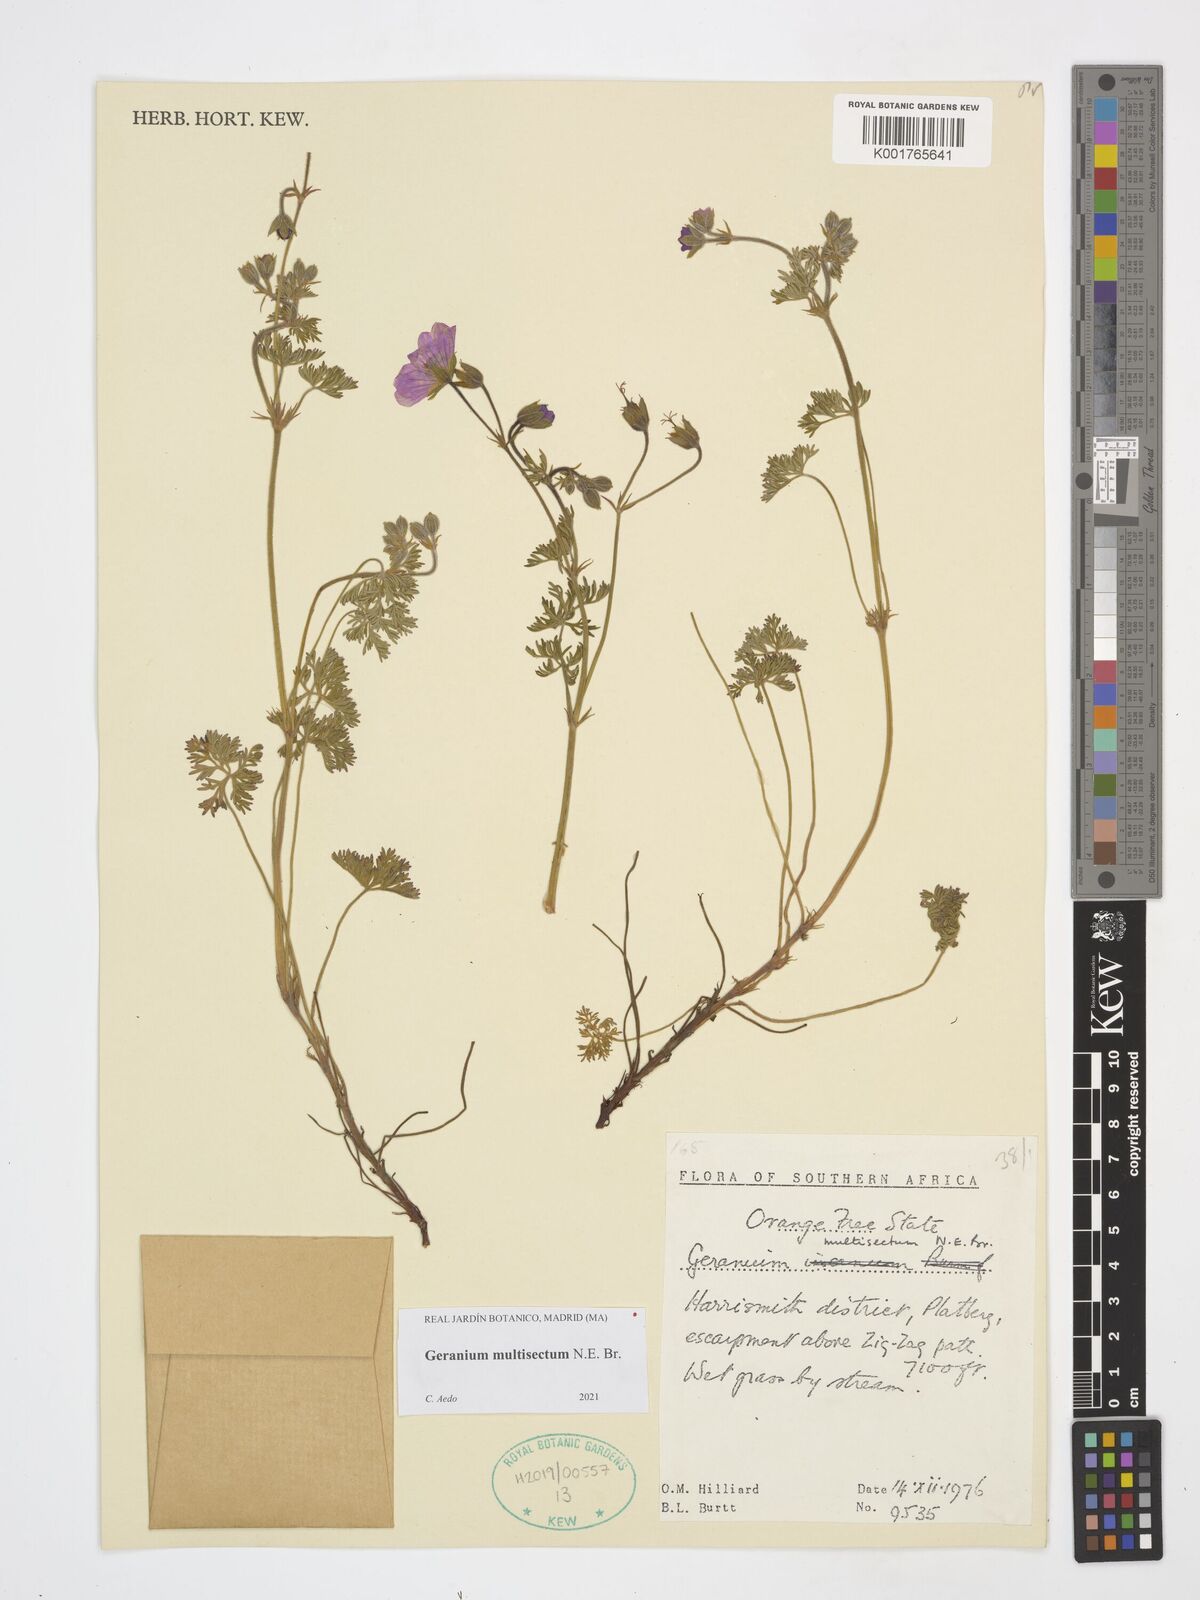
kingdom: Plantae
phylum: Tracheophyta
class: Magnoliopsida
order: Geraniales
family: Geraniaceae
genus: Geranium
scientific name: Geranium multisectum
